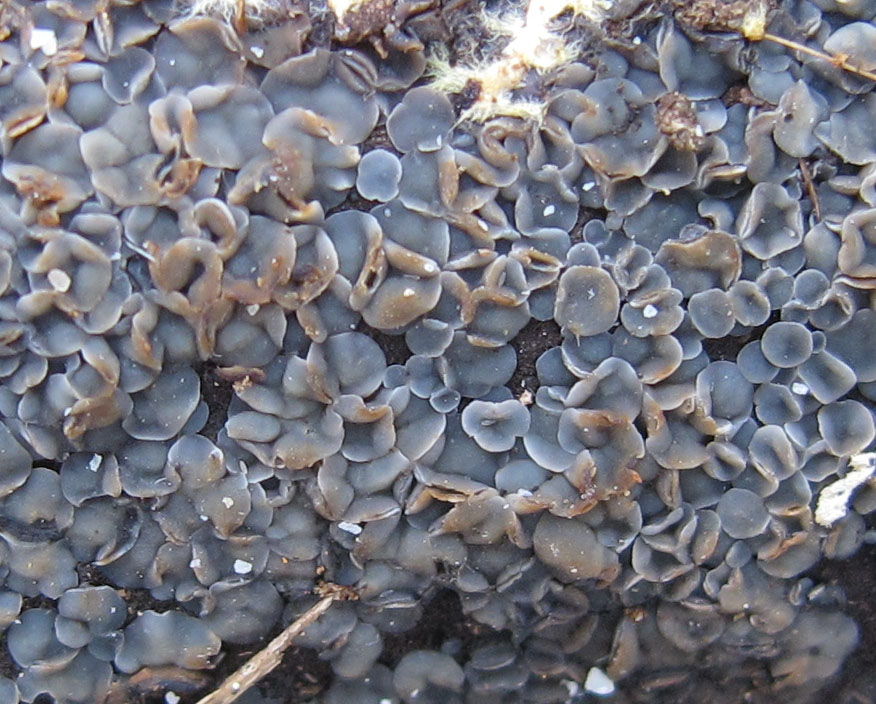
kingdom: Fungi
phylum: Ascomycota
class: Leotiomycetes
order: Helotiales
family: Mollisiaceae
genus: Tapesia
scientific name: Tapesia fusca
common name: tæppe-gråskive
